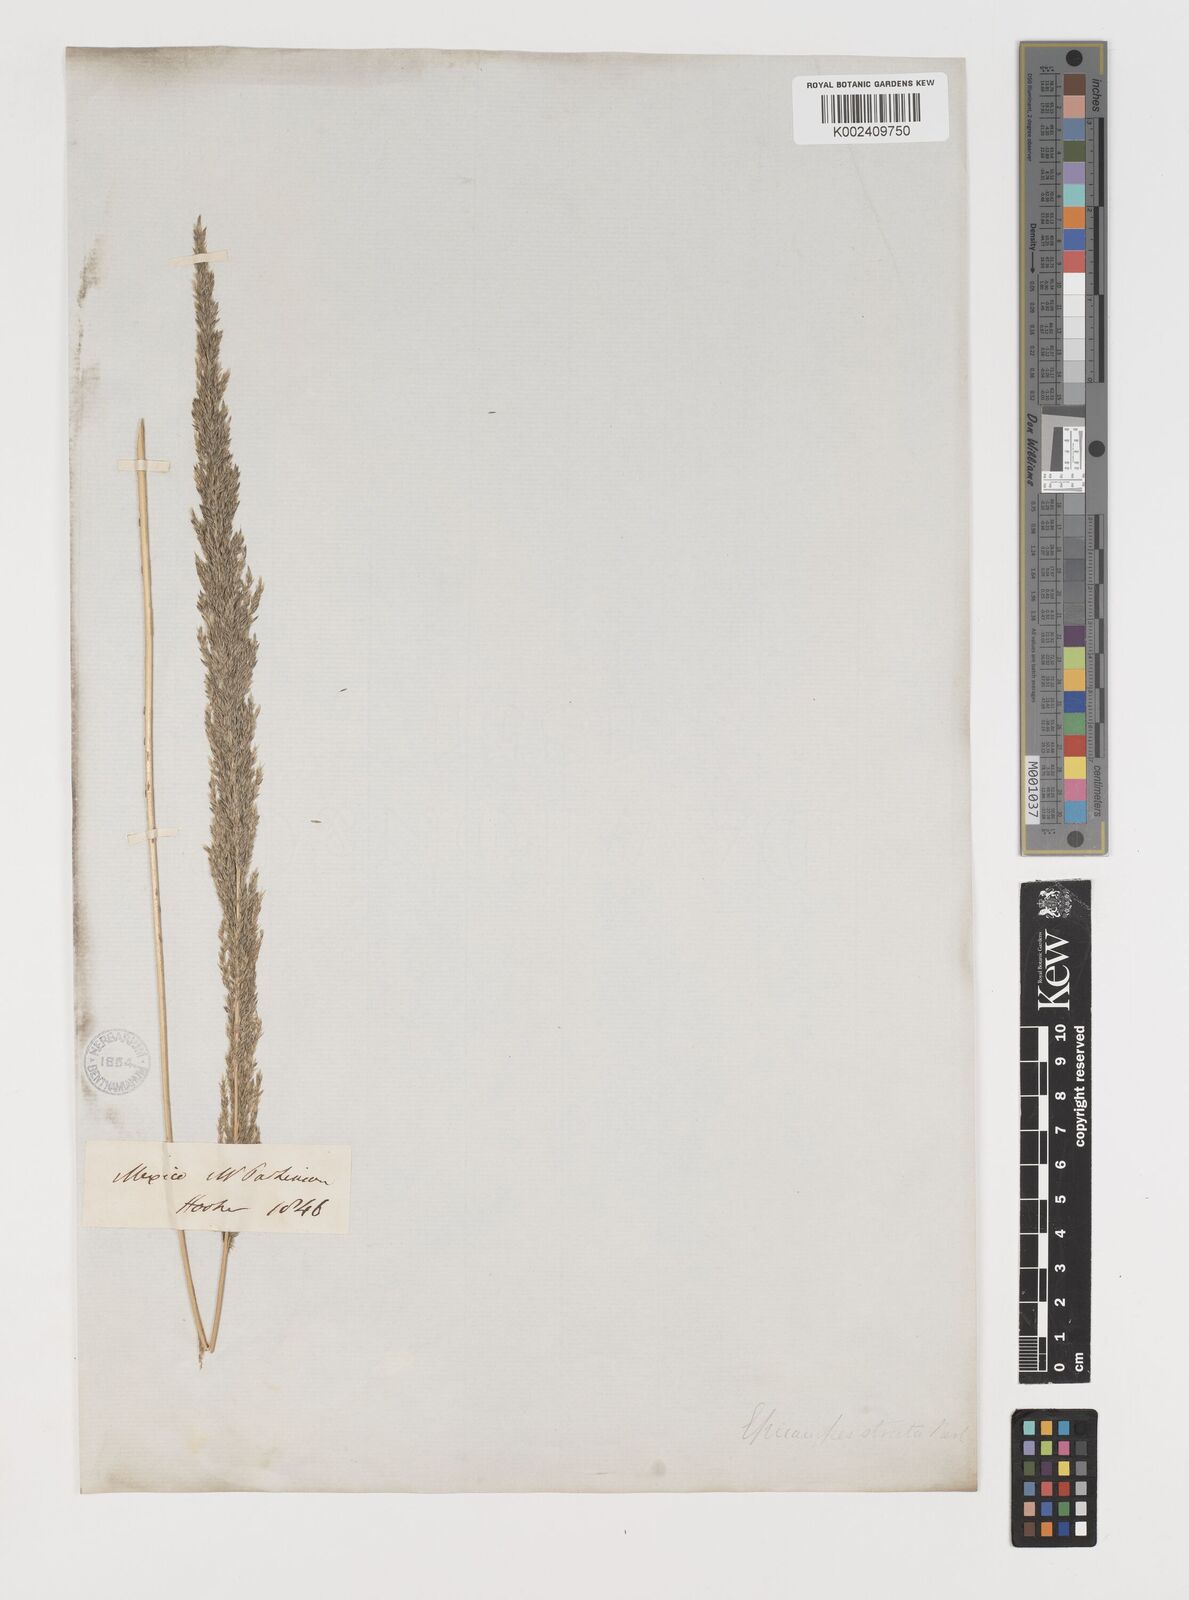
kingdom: Plantae
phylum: Tracheophyta
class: Liliopsida
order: Poales
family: Poaceae
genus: Muhlenbergia
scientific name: Muhlenbergia longiligula
